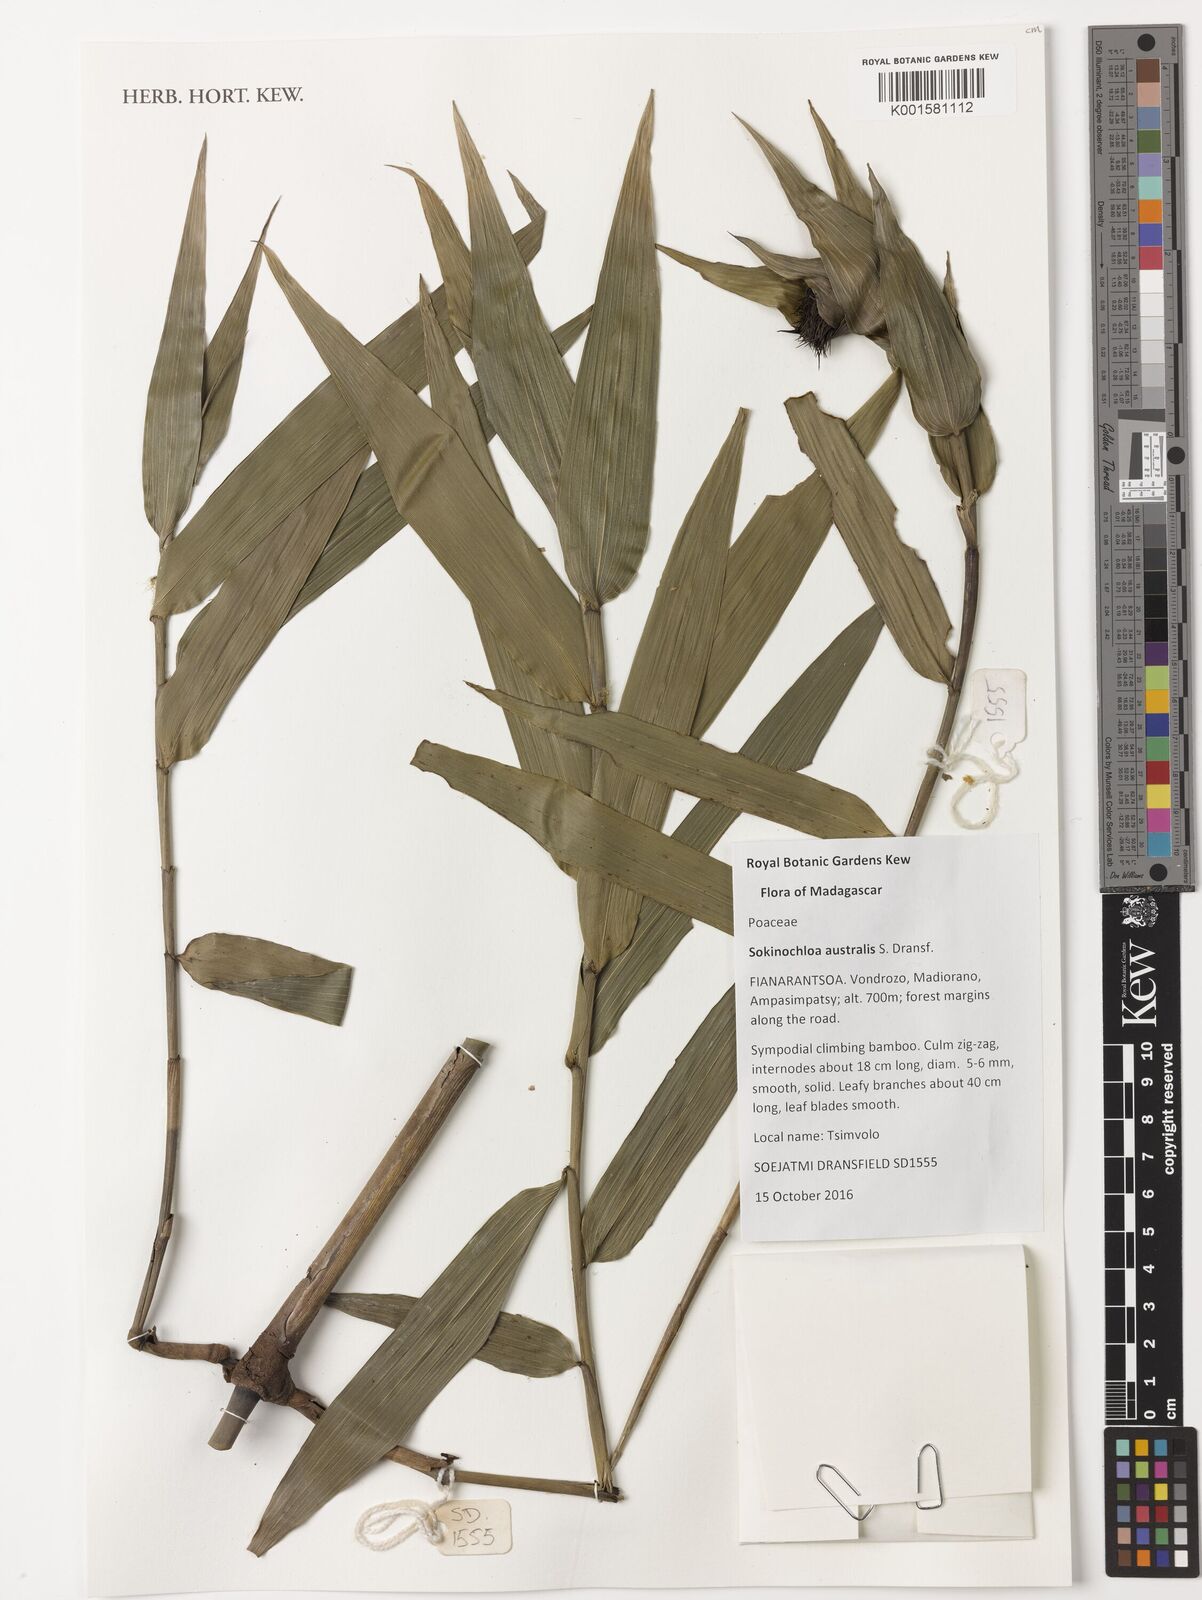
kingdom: Plantae
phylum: Tracheophyta
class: Liliopsida
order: Poales
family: Poaceae
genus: Sokinochloa
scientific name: Sokinochloa australis
